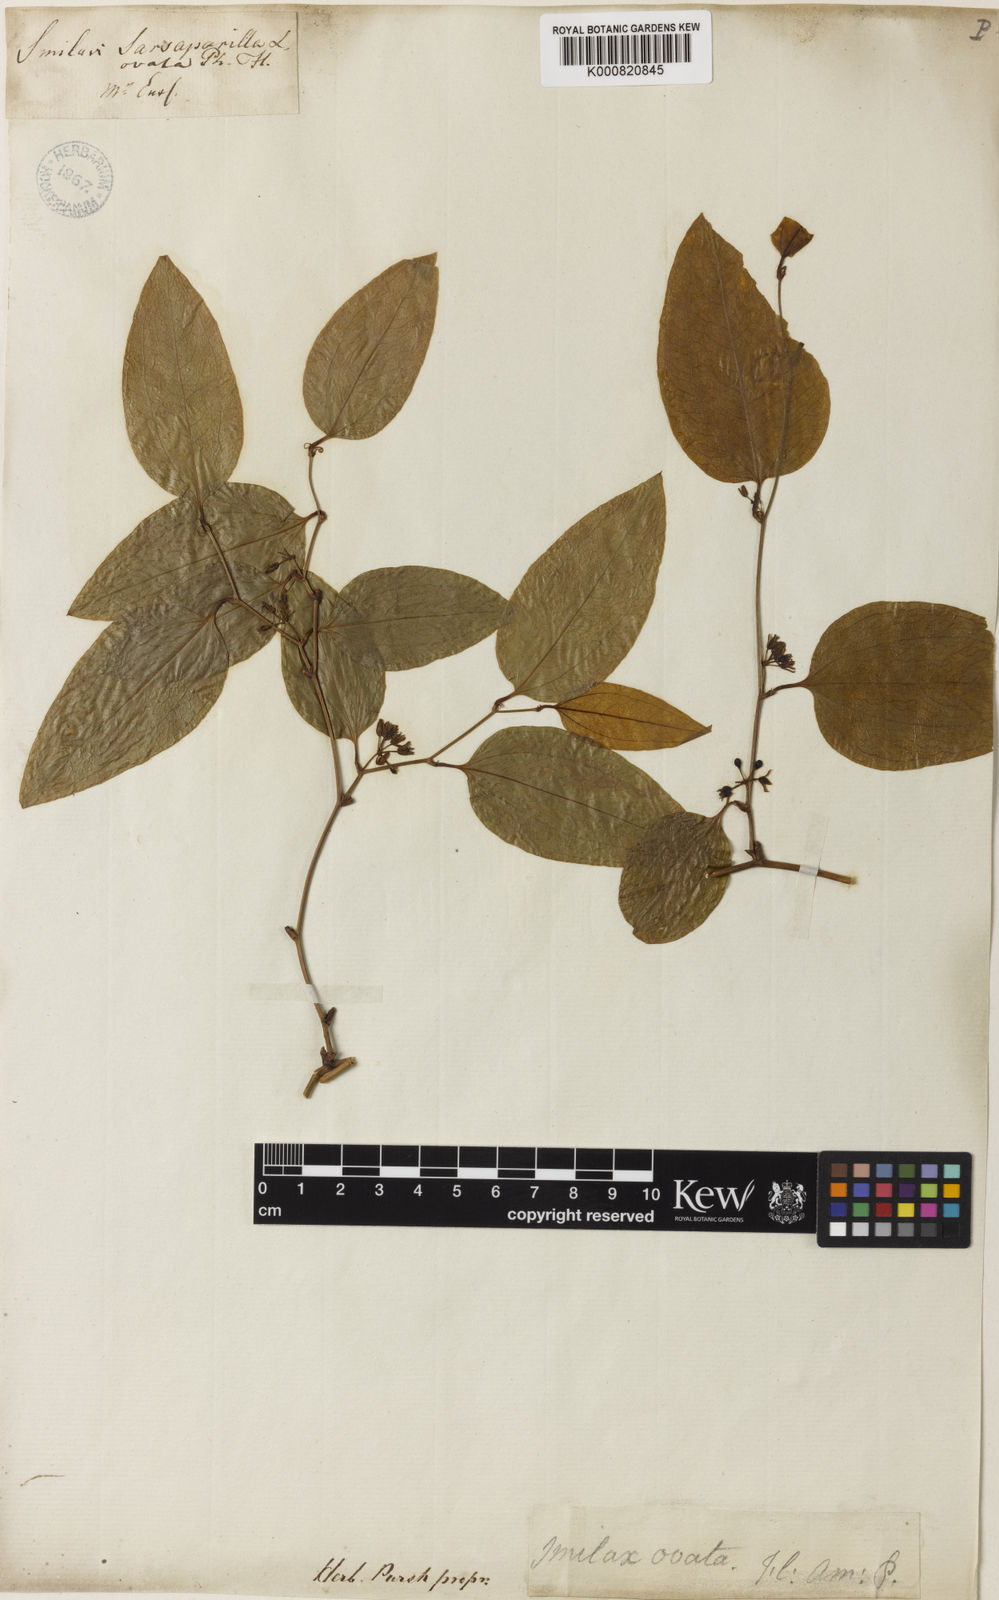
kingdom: Plantae
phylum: Tracheophyta
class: Liliopsida
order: Liliales
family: Smilacaceae
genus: Smilax
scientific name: Smilax mollis
